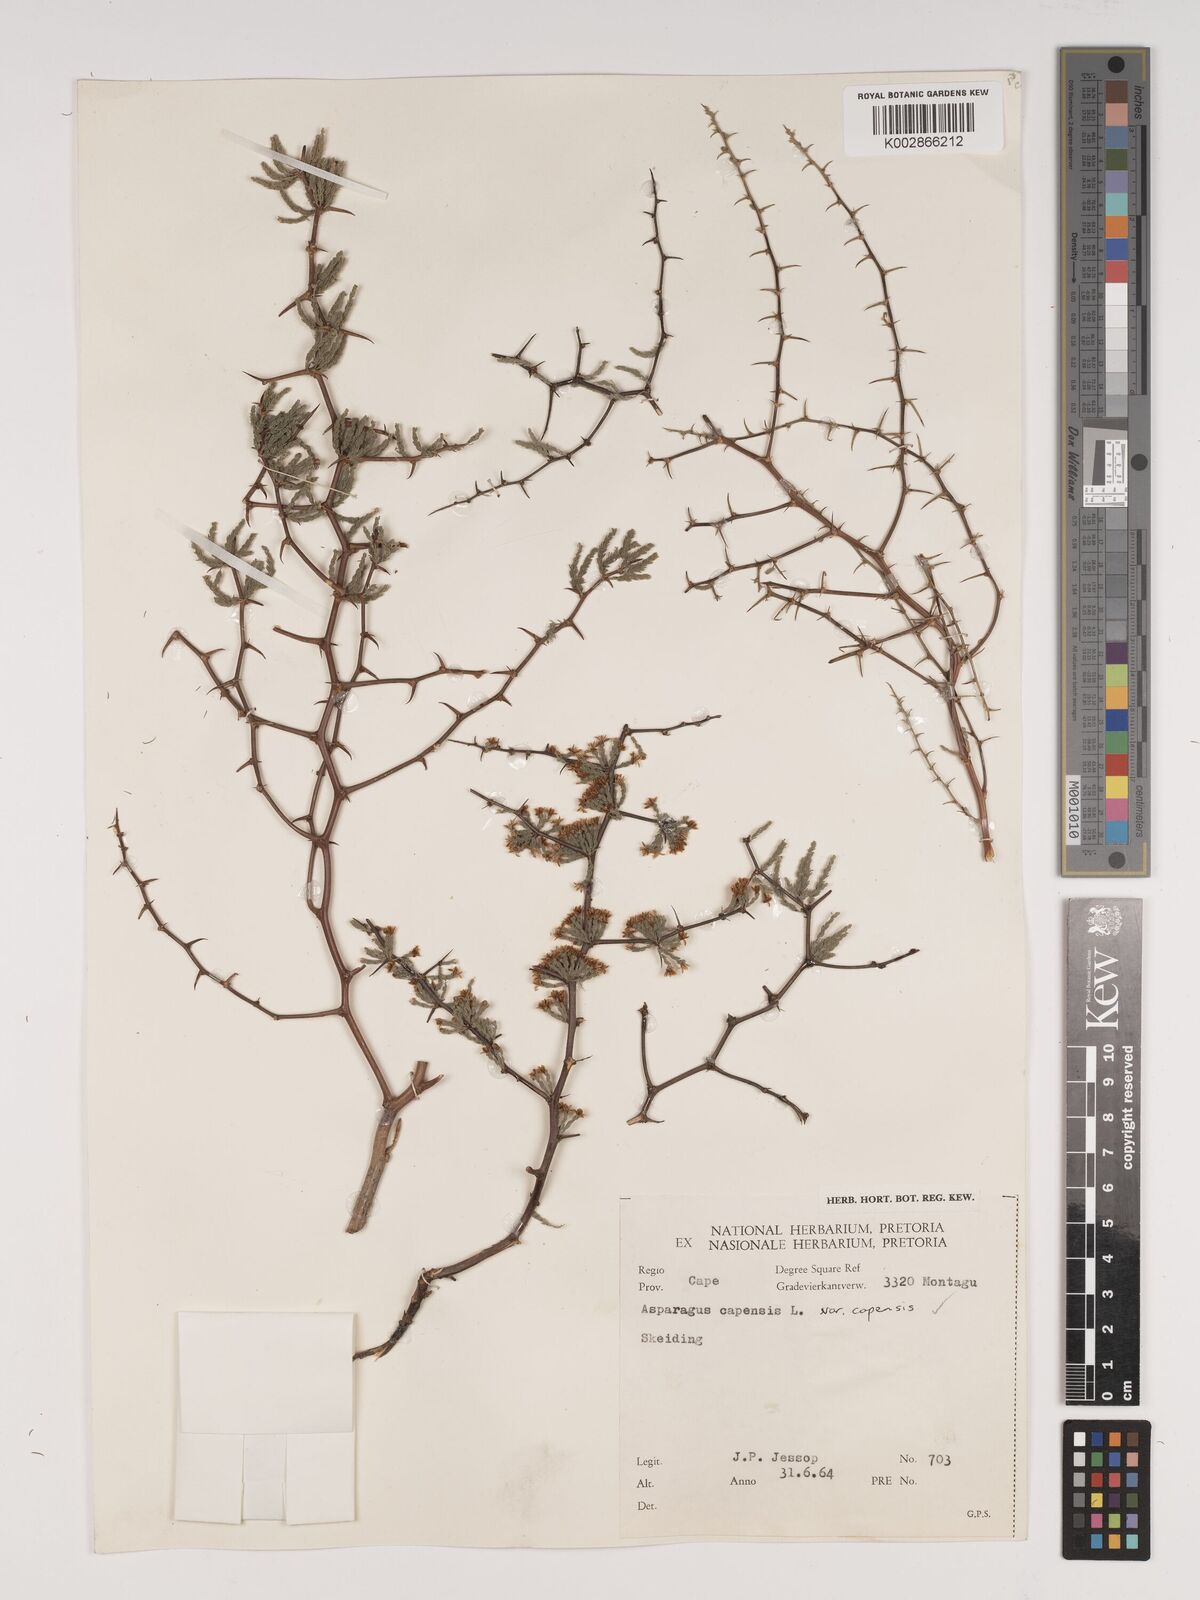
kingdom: Plantae
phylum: Tracheophyta
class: Liliopsida
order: Asparagales
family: Asparagaceae
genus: Asparagus
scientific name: Asparagus capensis
